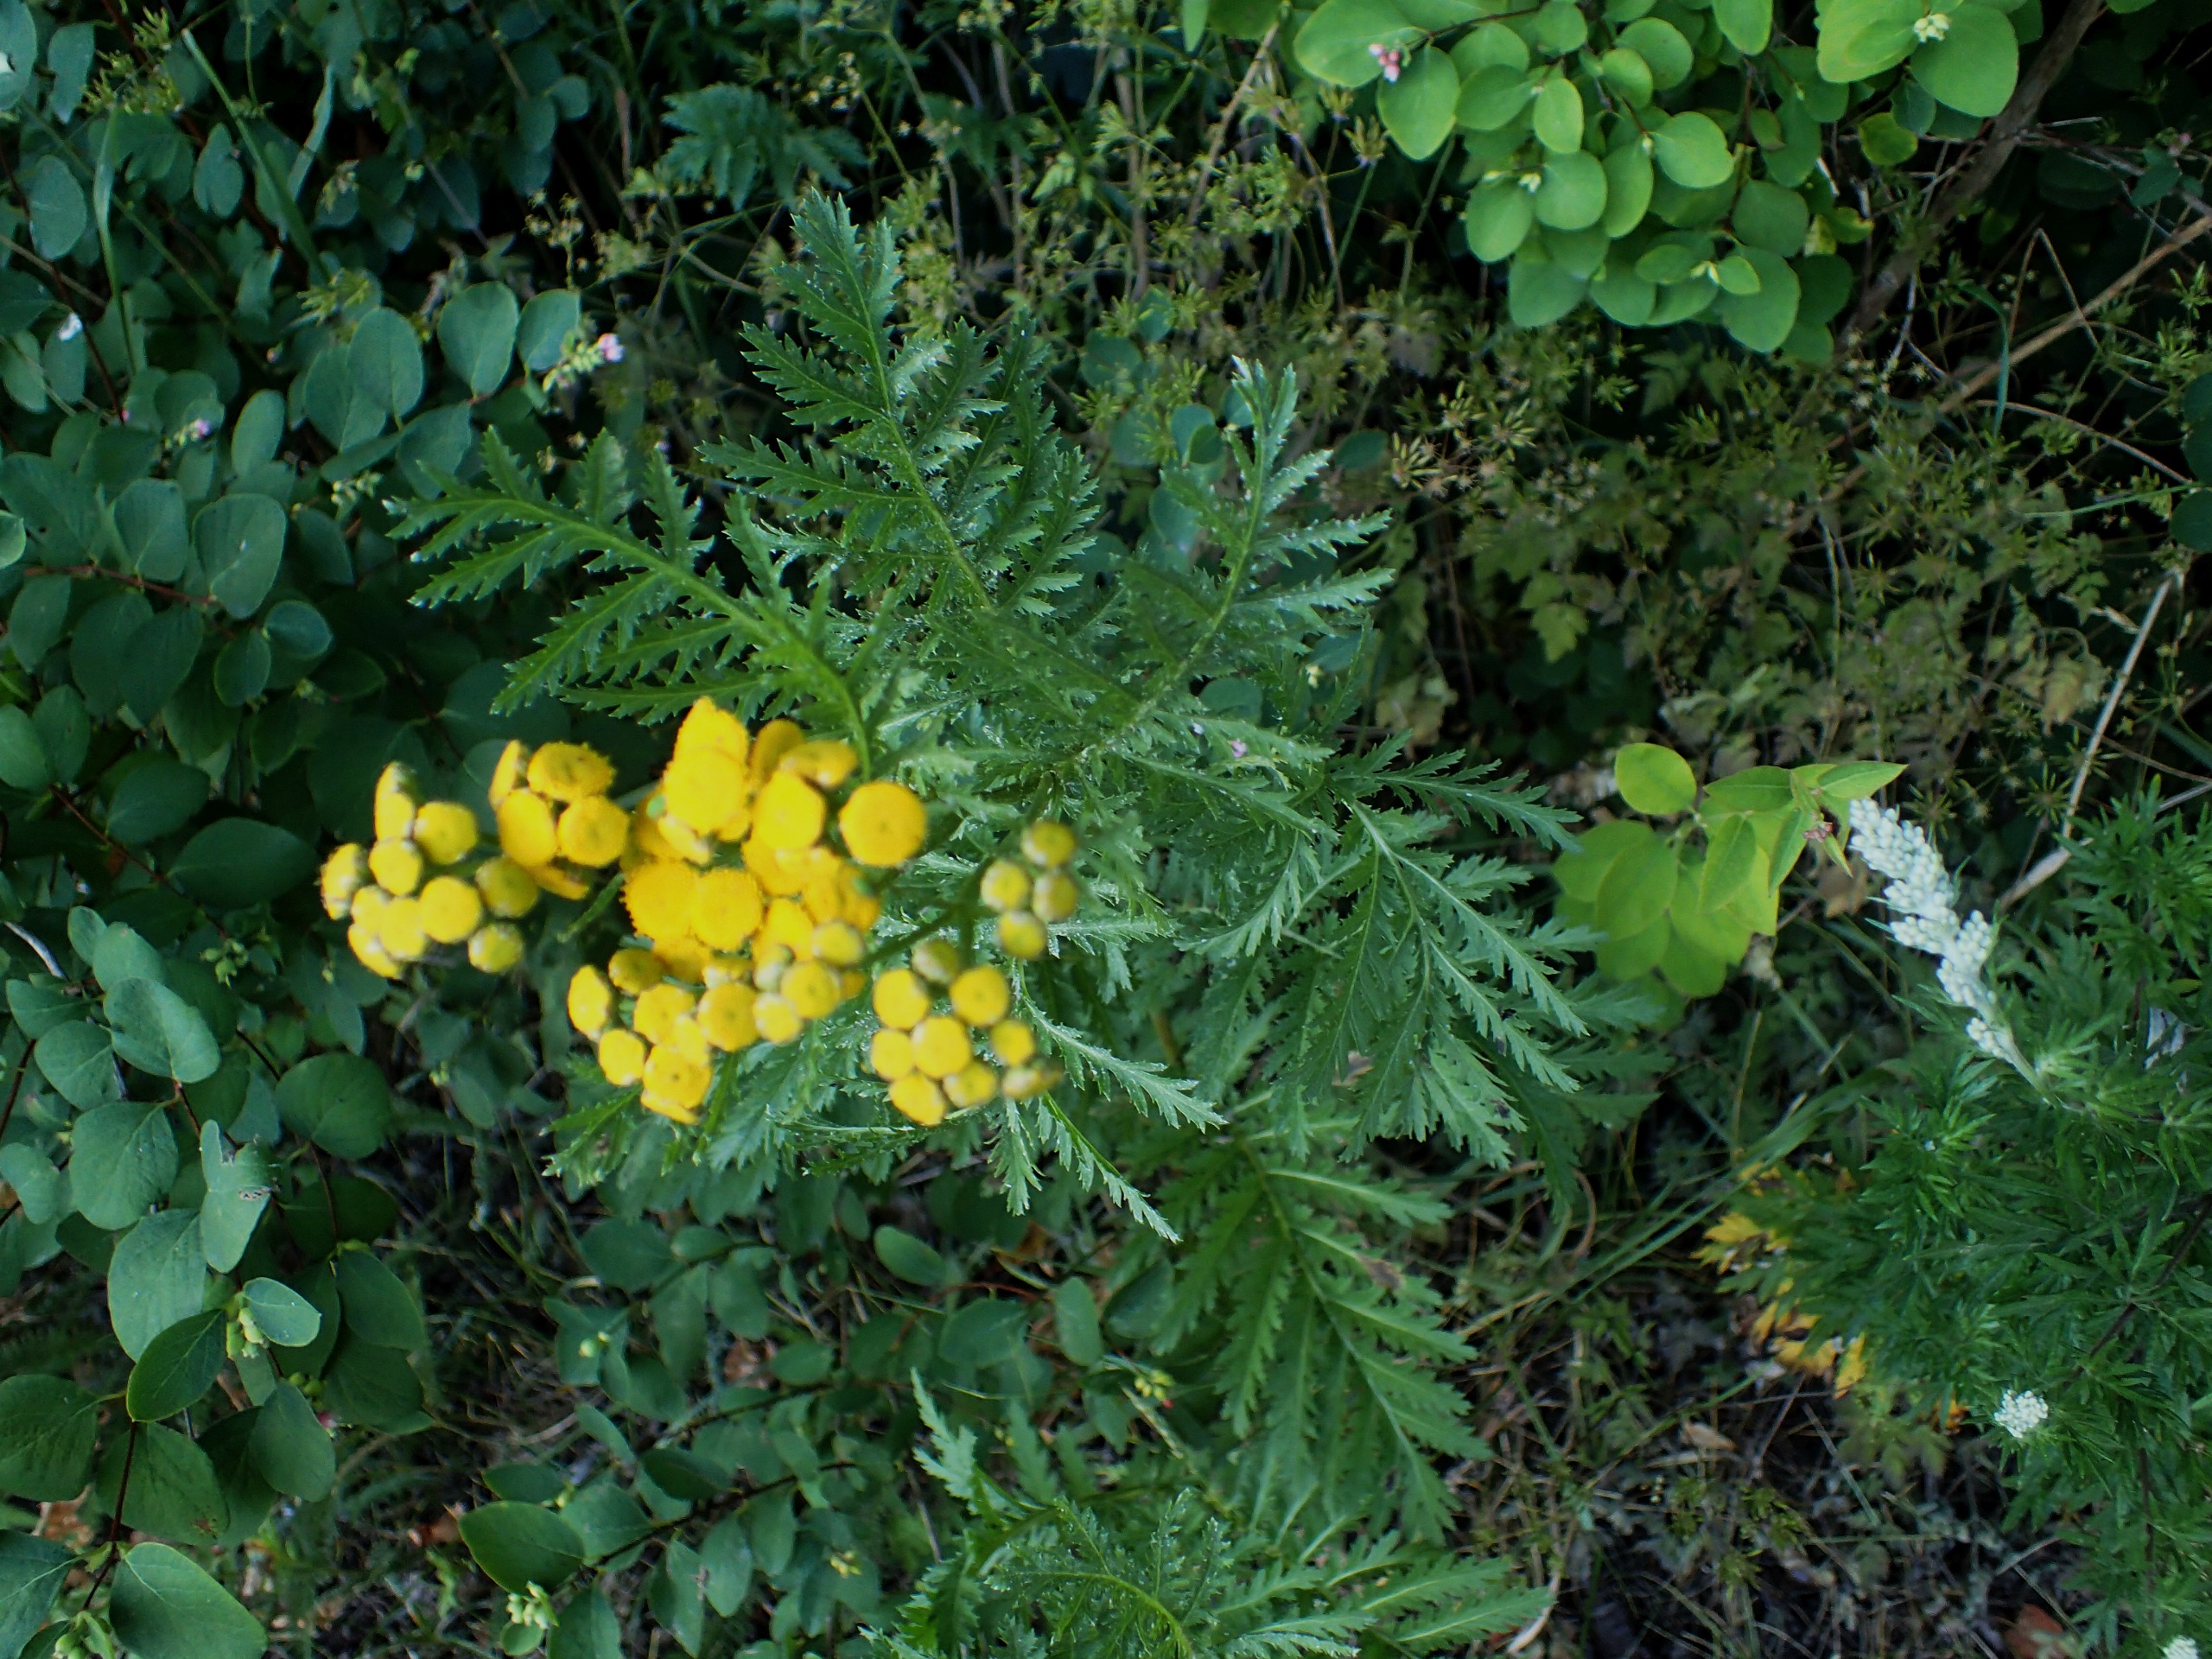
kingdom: Plantae
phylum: Tracheophyta
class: Magnoliopsida
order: Asterales
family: Asteraceae
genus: Tanacetum
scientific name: Tanacetum vulgare
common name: Rejnfan
